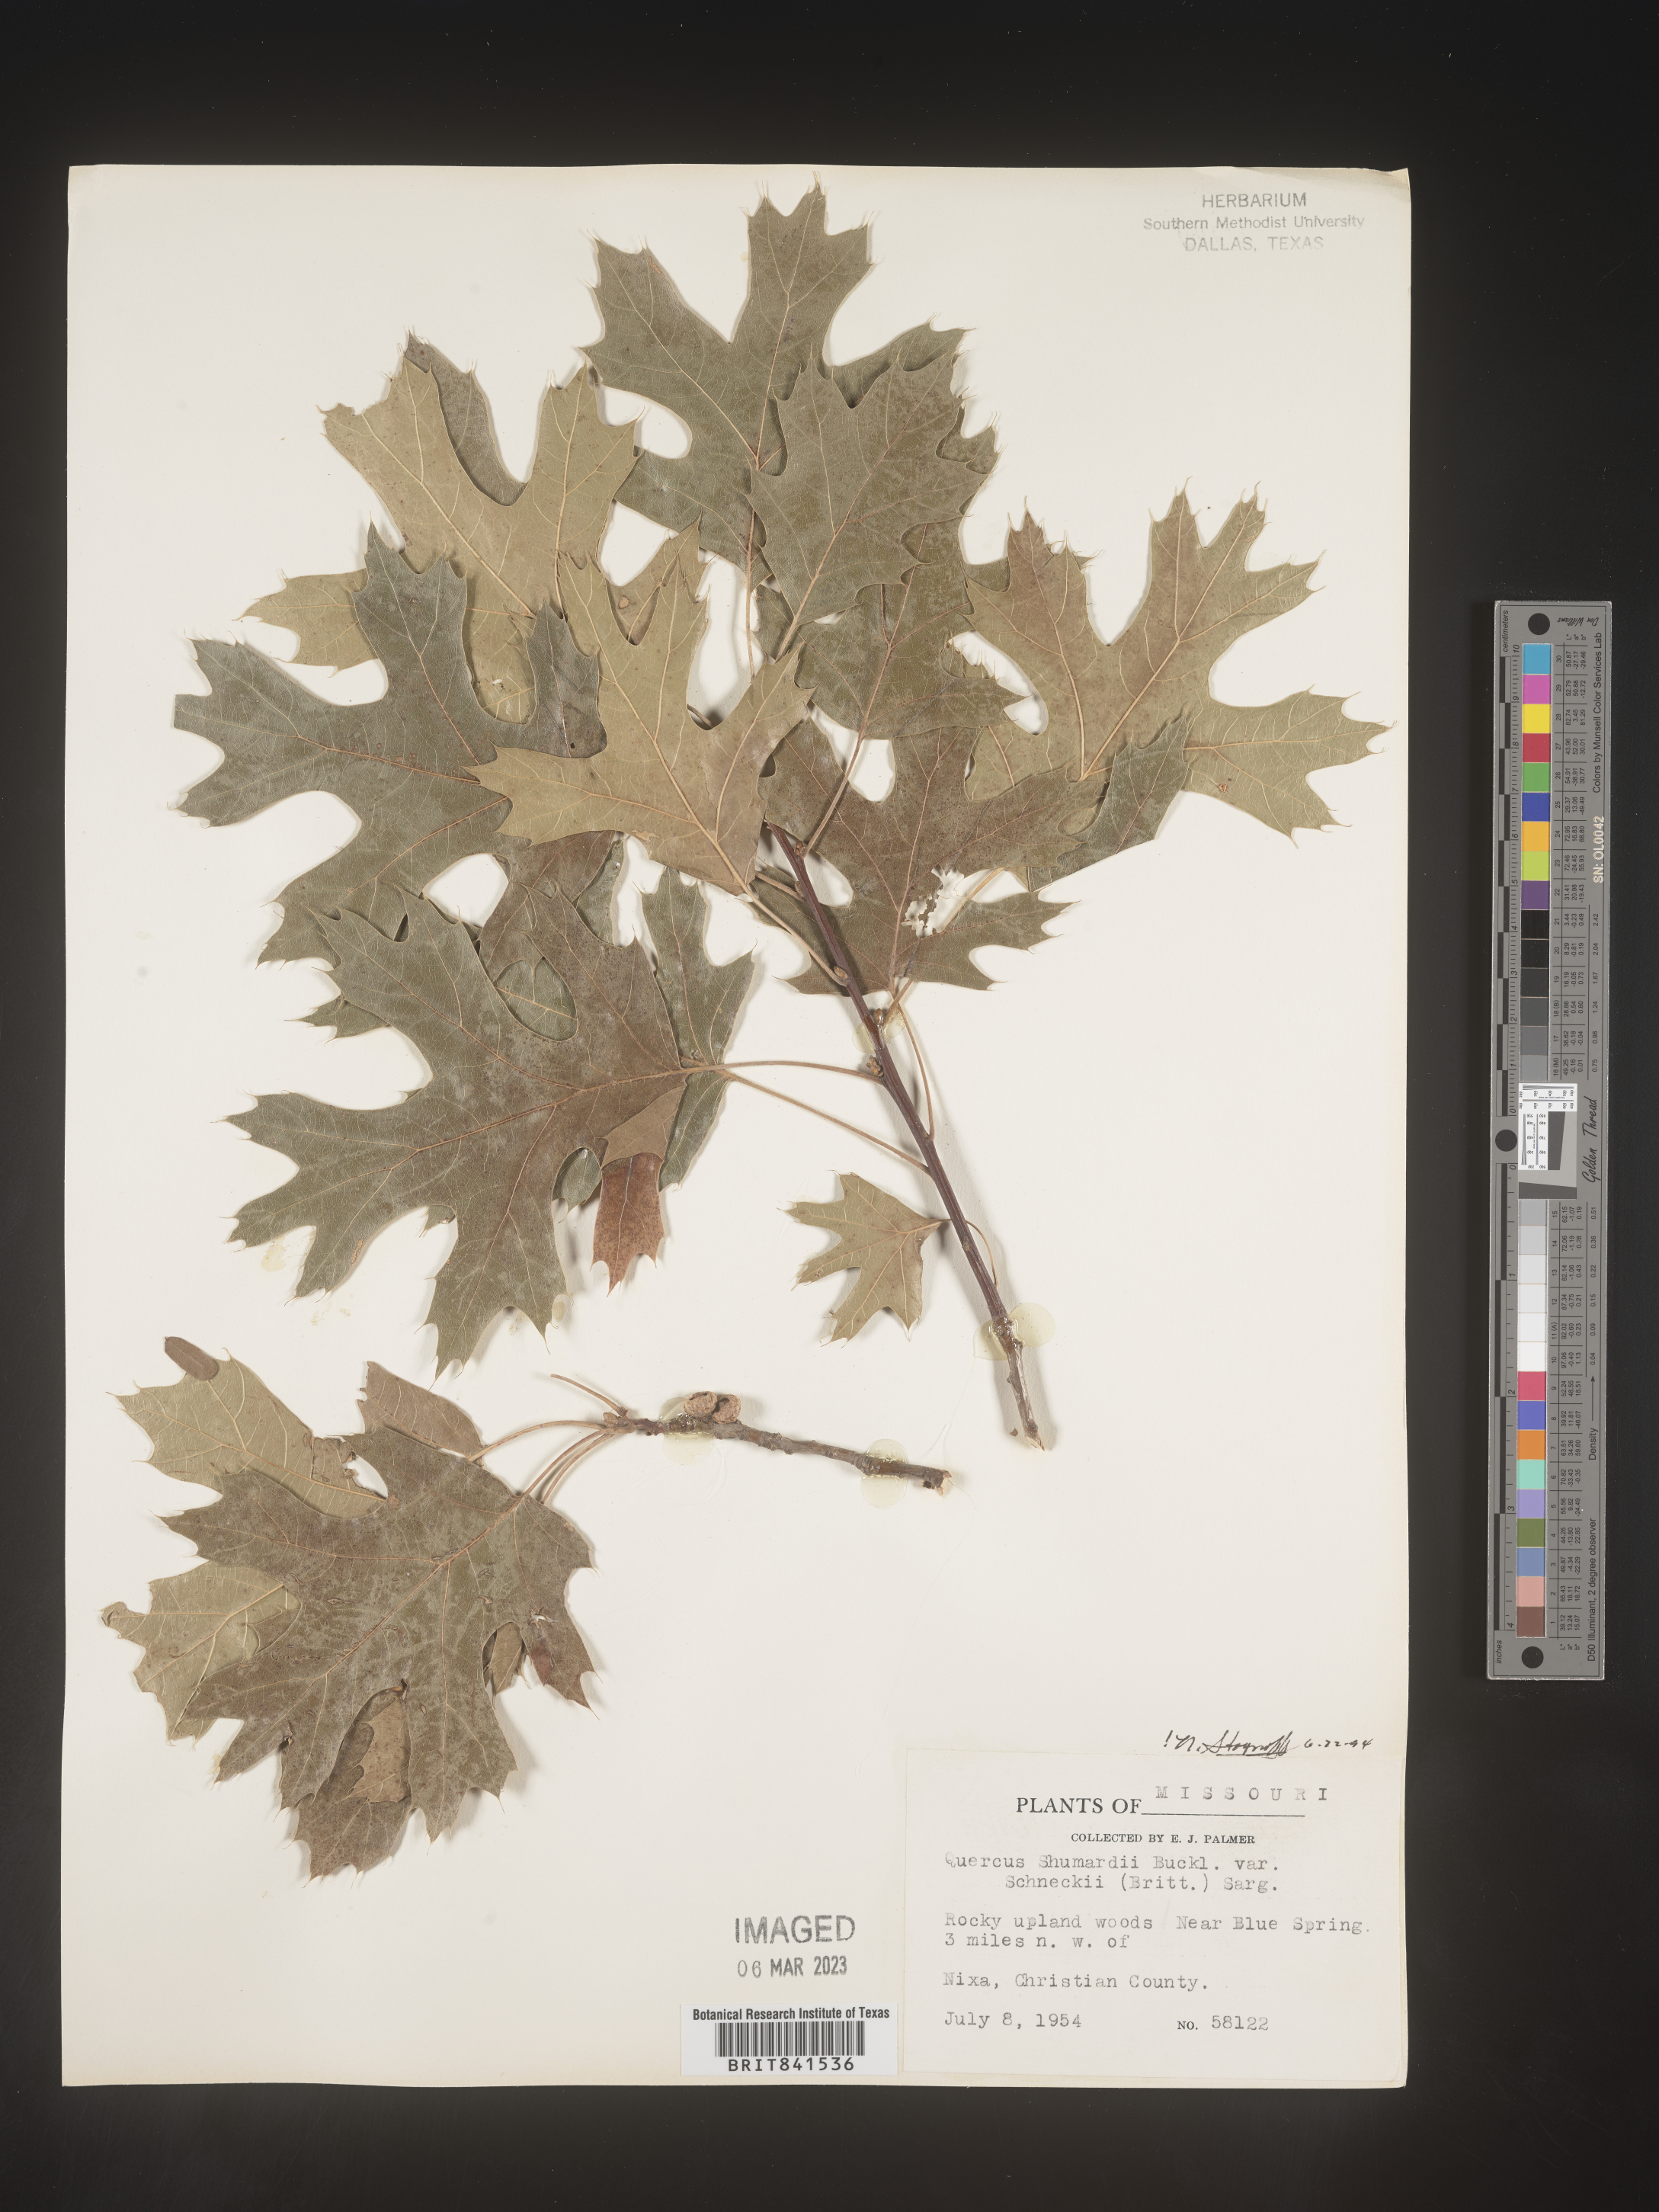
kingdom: Plantae
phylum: Tracheophyta
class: Magnoliopsida
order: Fagales
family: Fagaceae
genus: Quercus
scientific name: Quercus shumardii
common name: Shumard oak
